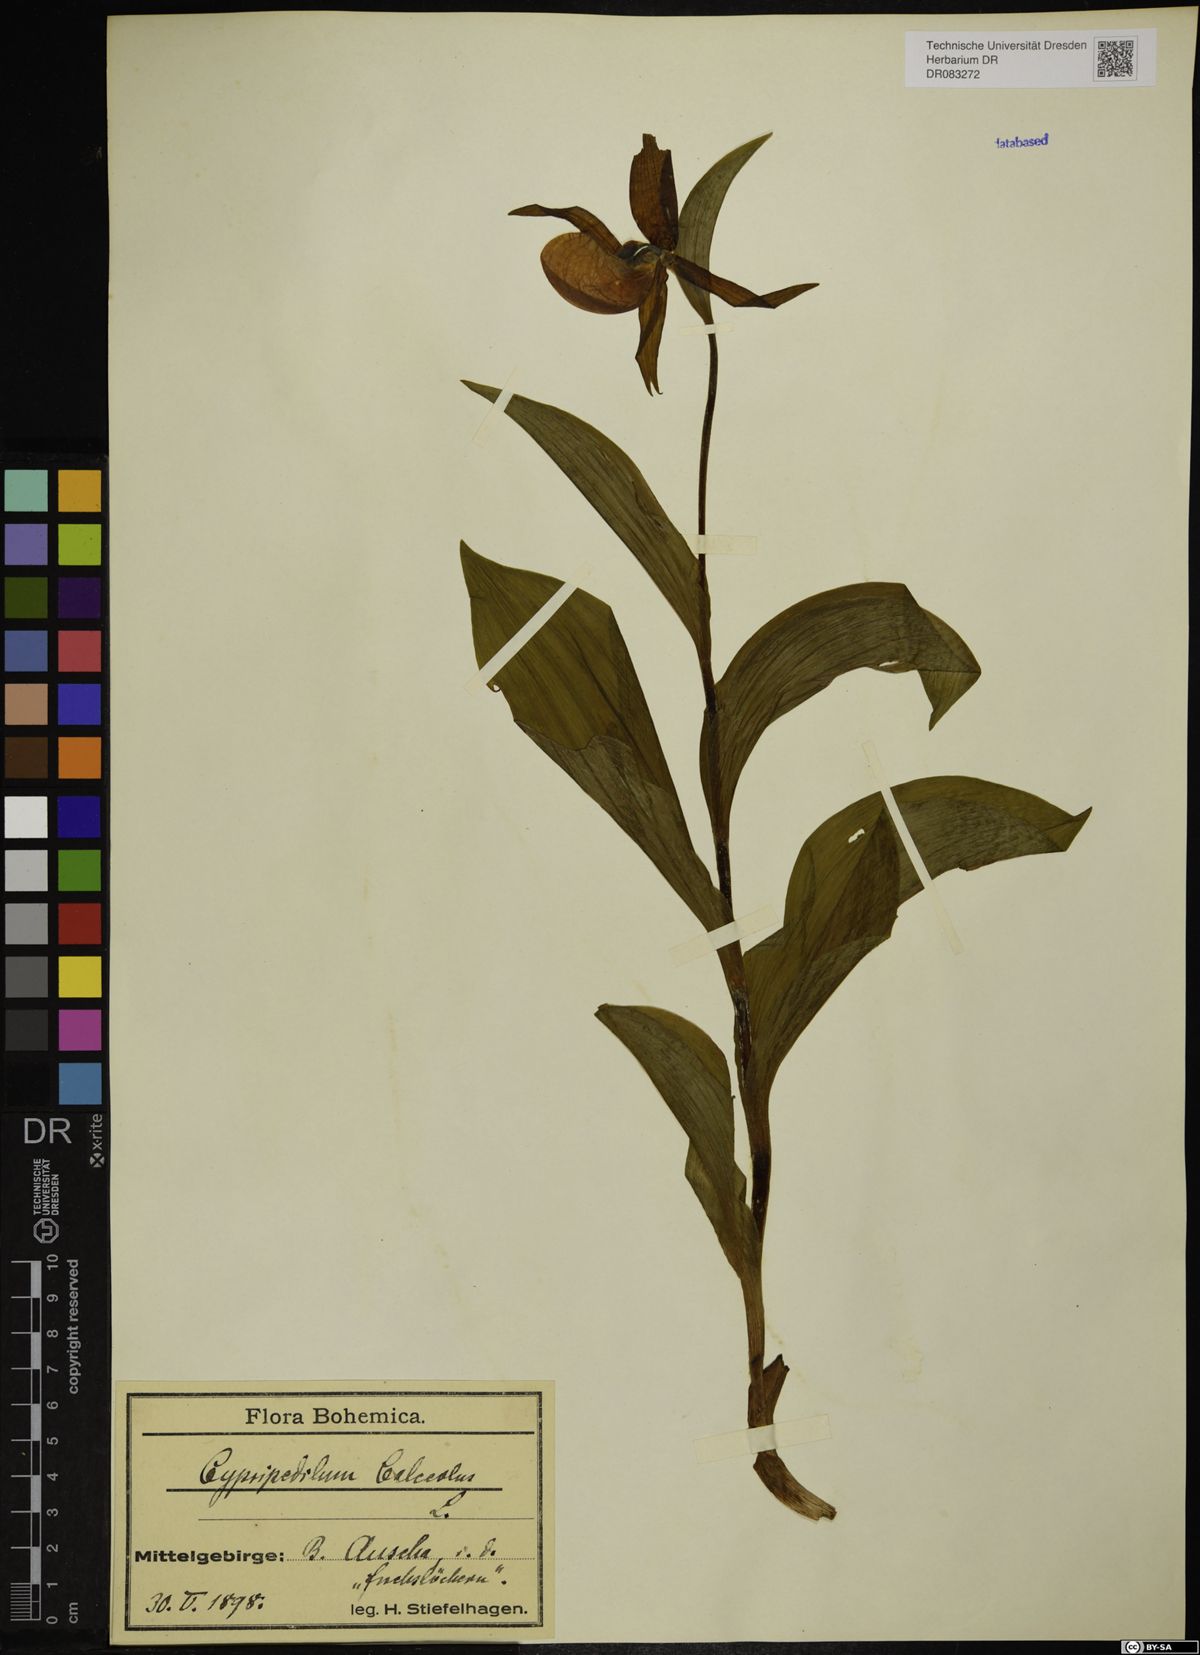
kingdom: Plantae
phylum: Tracheophyta
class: Liliopsida
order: Asparagales
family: Orchidaceae
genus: Cypripedium
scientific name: Cypripedium calceolus
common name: Lady's-slipper
